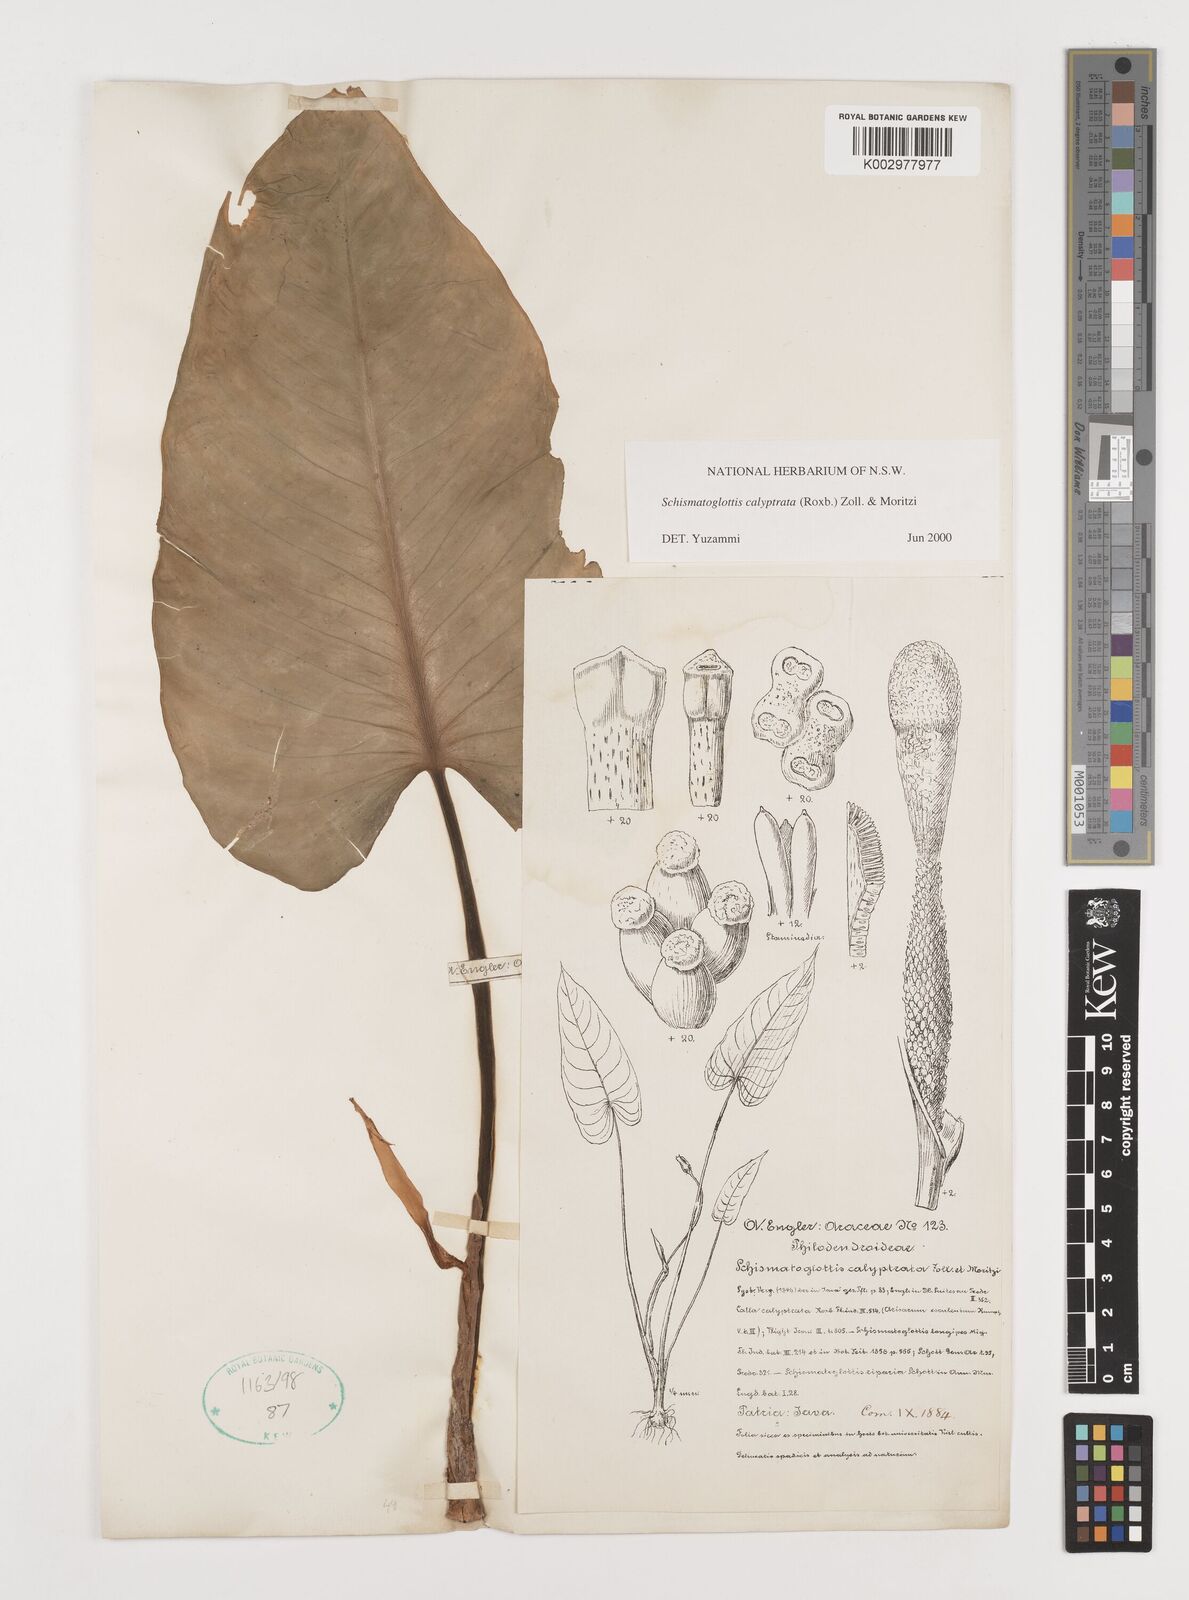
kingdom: Plantae
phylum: Tracheophyta
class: Liliopsida
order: Alismatales
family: Araceae
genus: Schismatoglottis
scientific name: Schismatoglottis calyptrata
